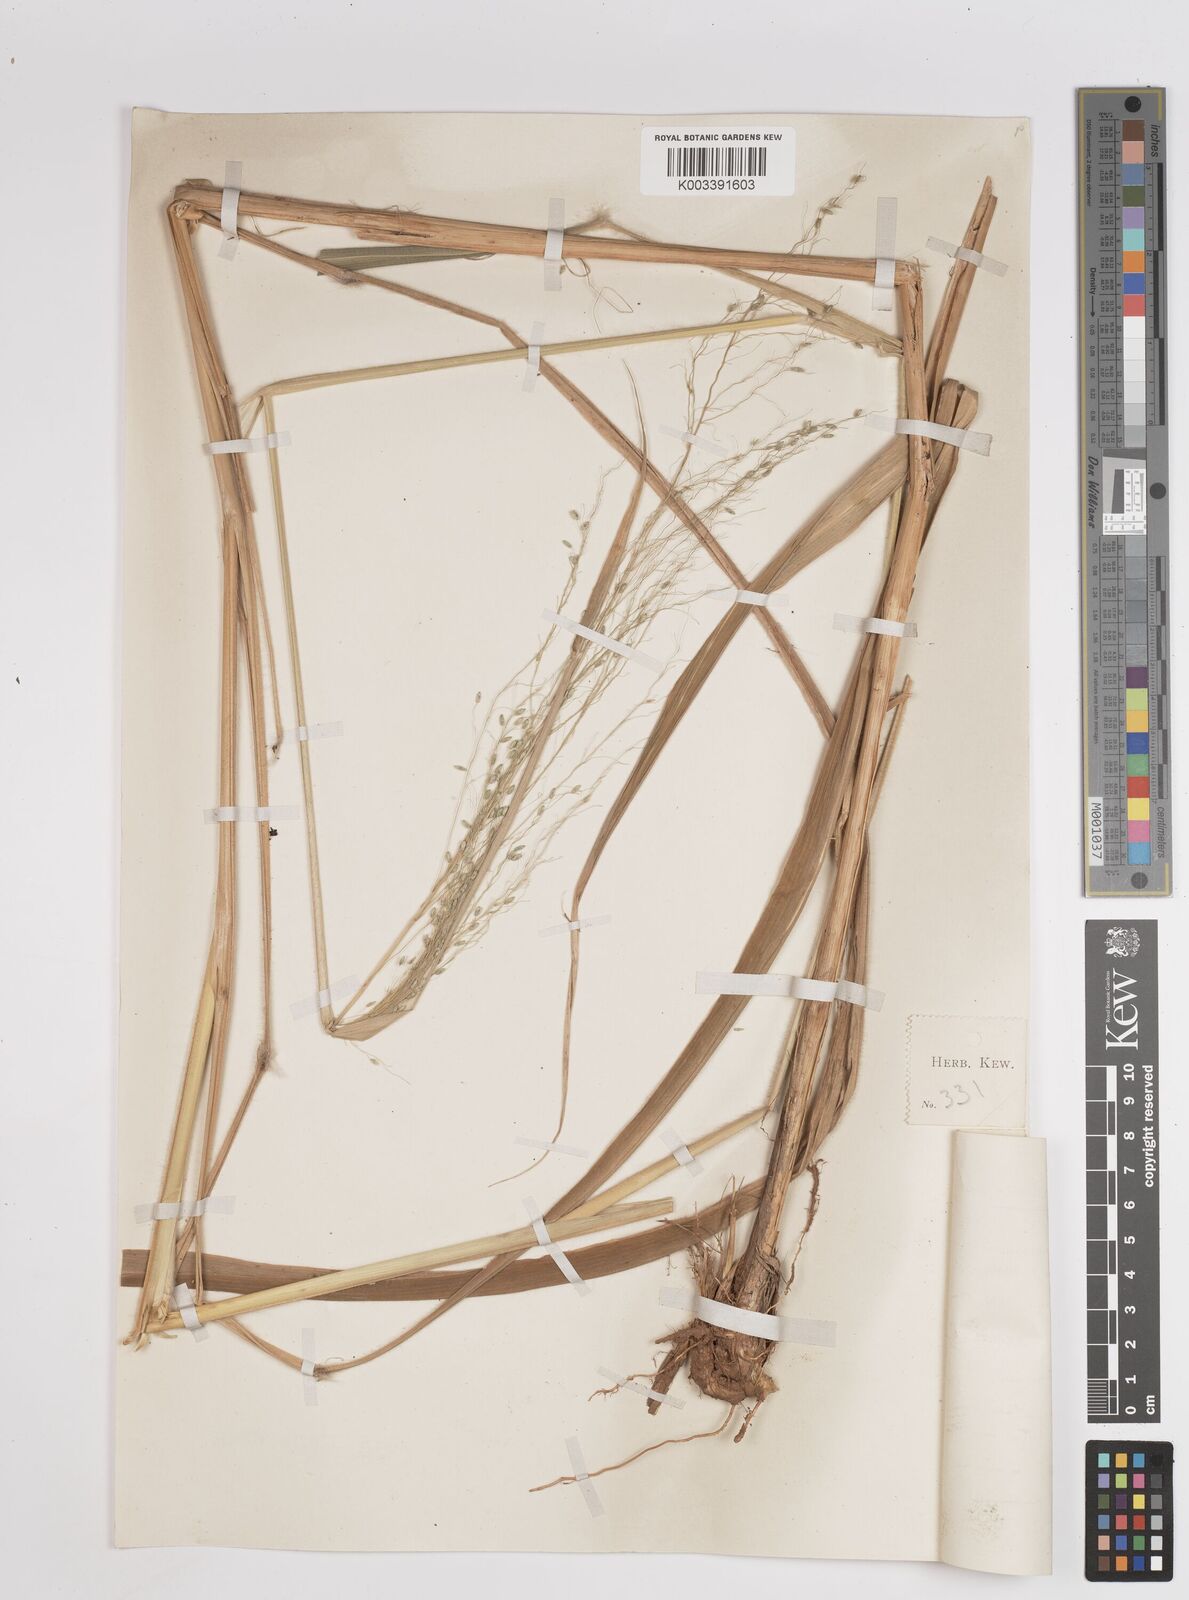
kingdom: Plantae
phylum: Tracheophyta
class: Liliopsida
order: Poales
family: Poaceae
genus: Megathyrsus
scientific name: Megathyrsus maximus
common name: Guineagrass
